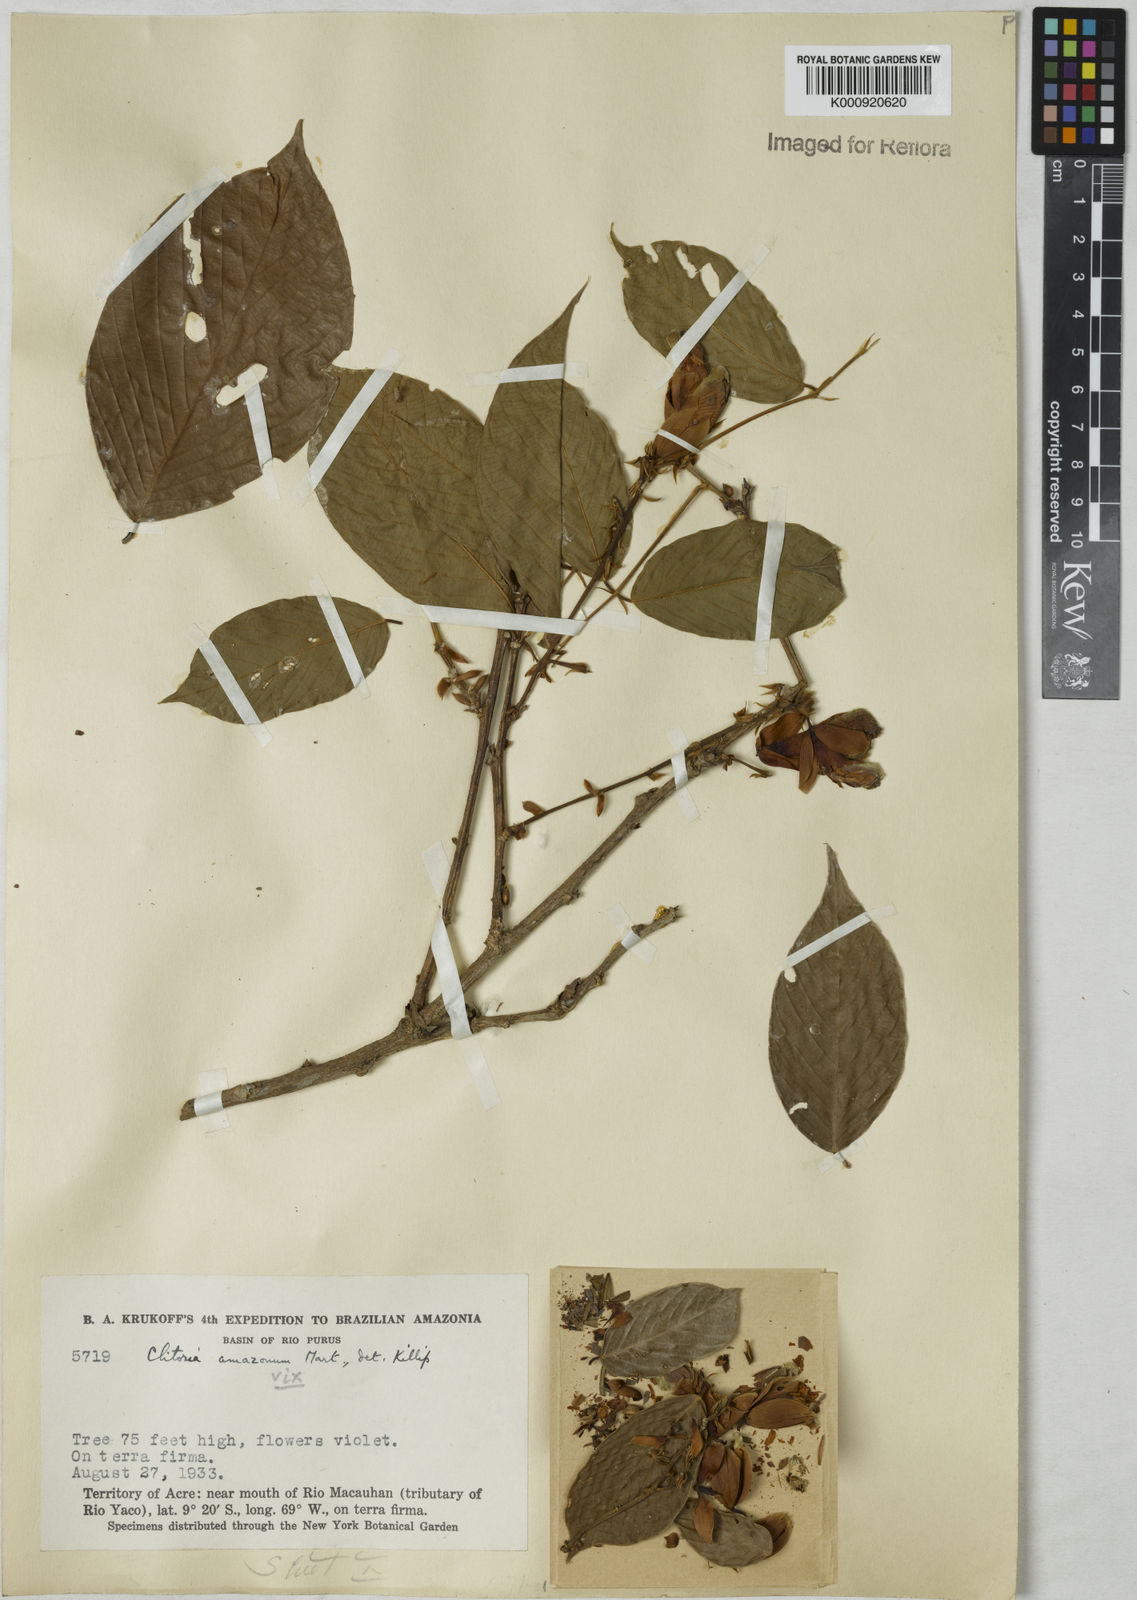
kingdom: Plantae
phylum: Tracheophyta
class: Magnoliopsida
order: Fabales
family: Fabaceae
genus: Clitoria
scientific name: Clitoria amazonum
